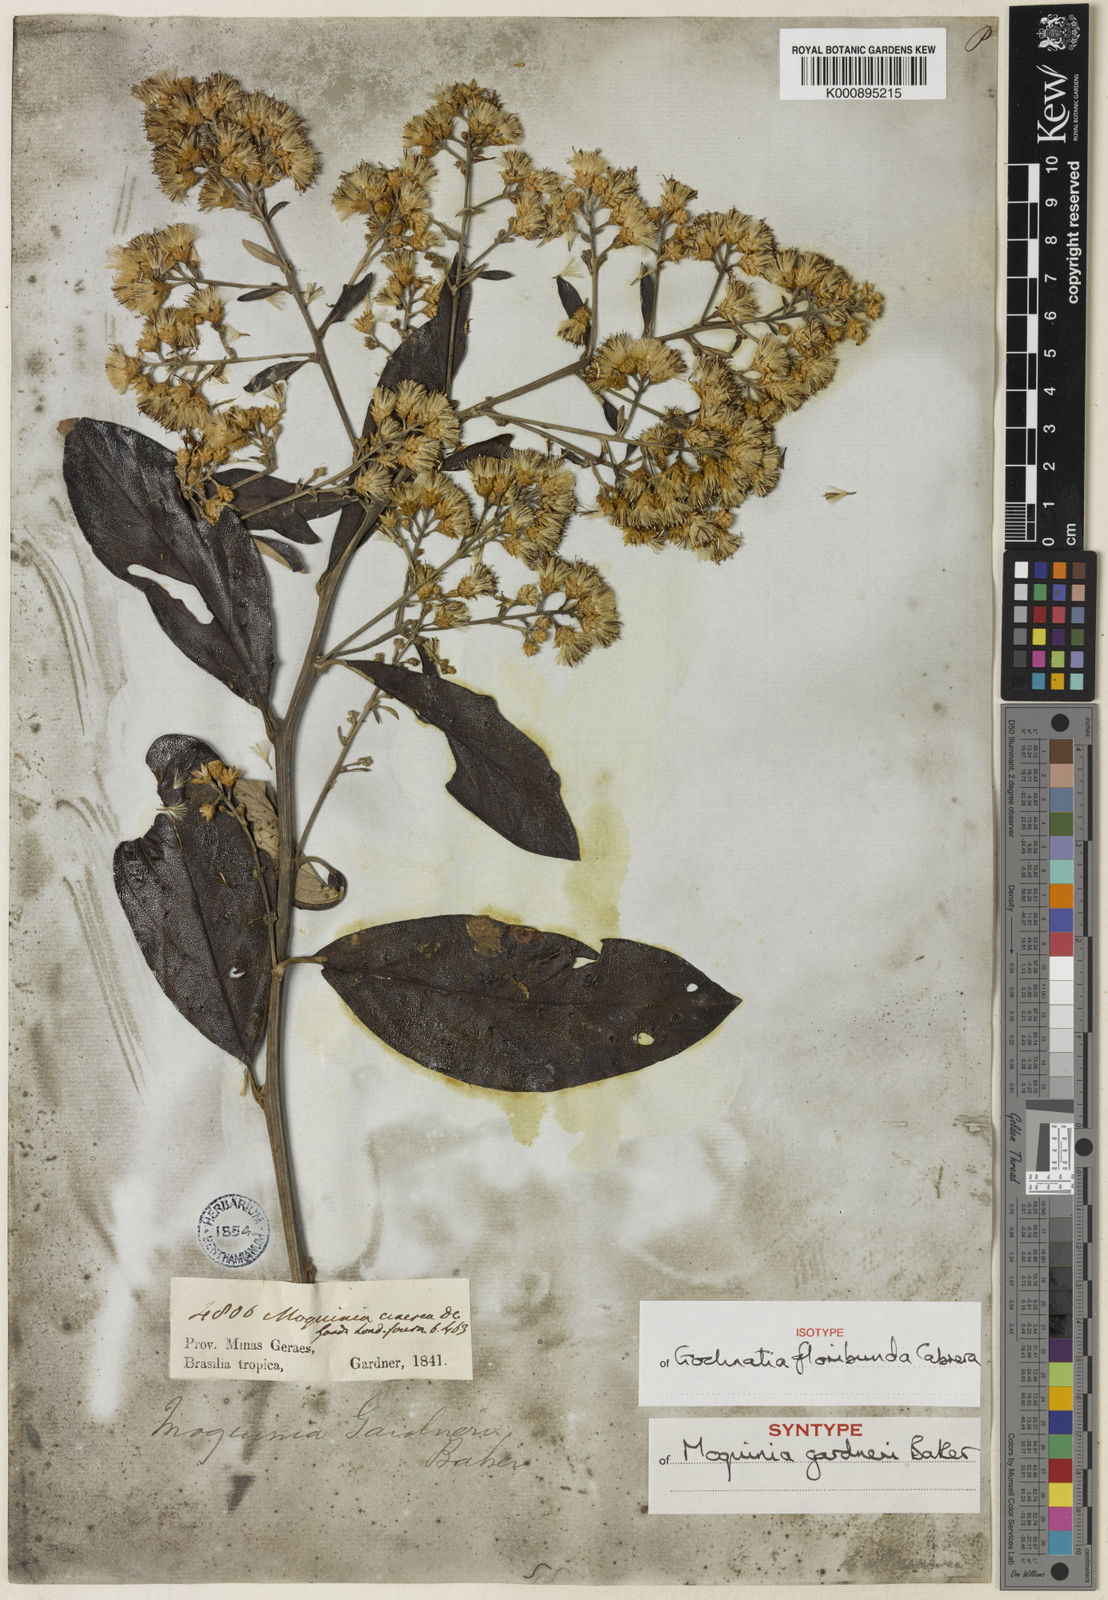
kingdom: Plantae
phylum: Tracheophyta
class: Magnoliopsida
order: Asterales
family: Asteraceae
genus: Moquiniastrum
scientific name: Moquiniastrum floribundum
